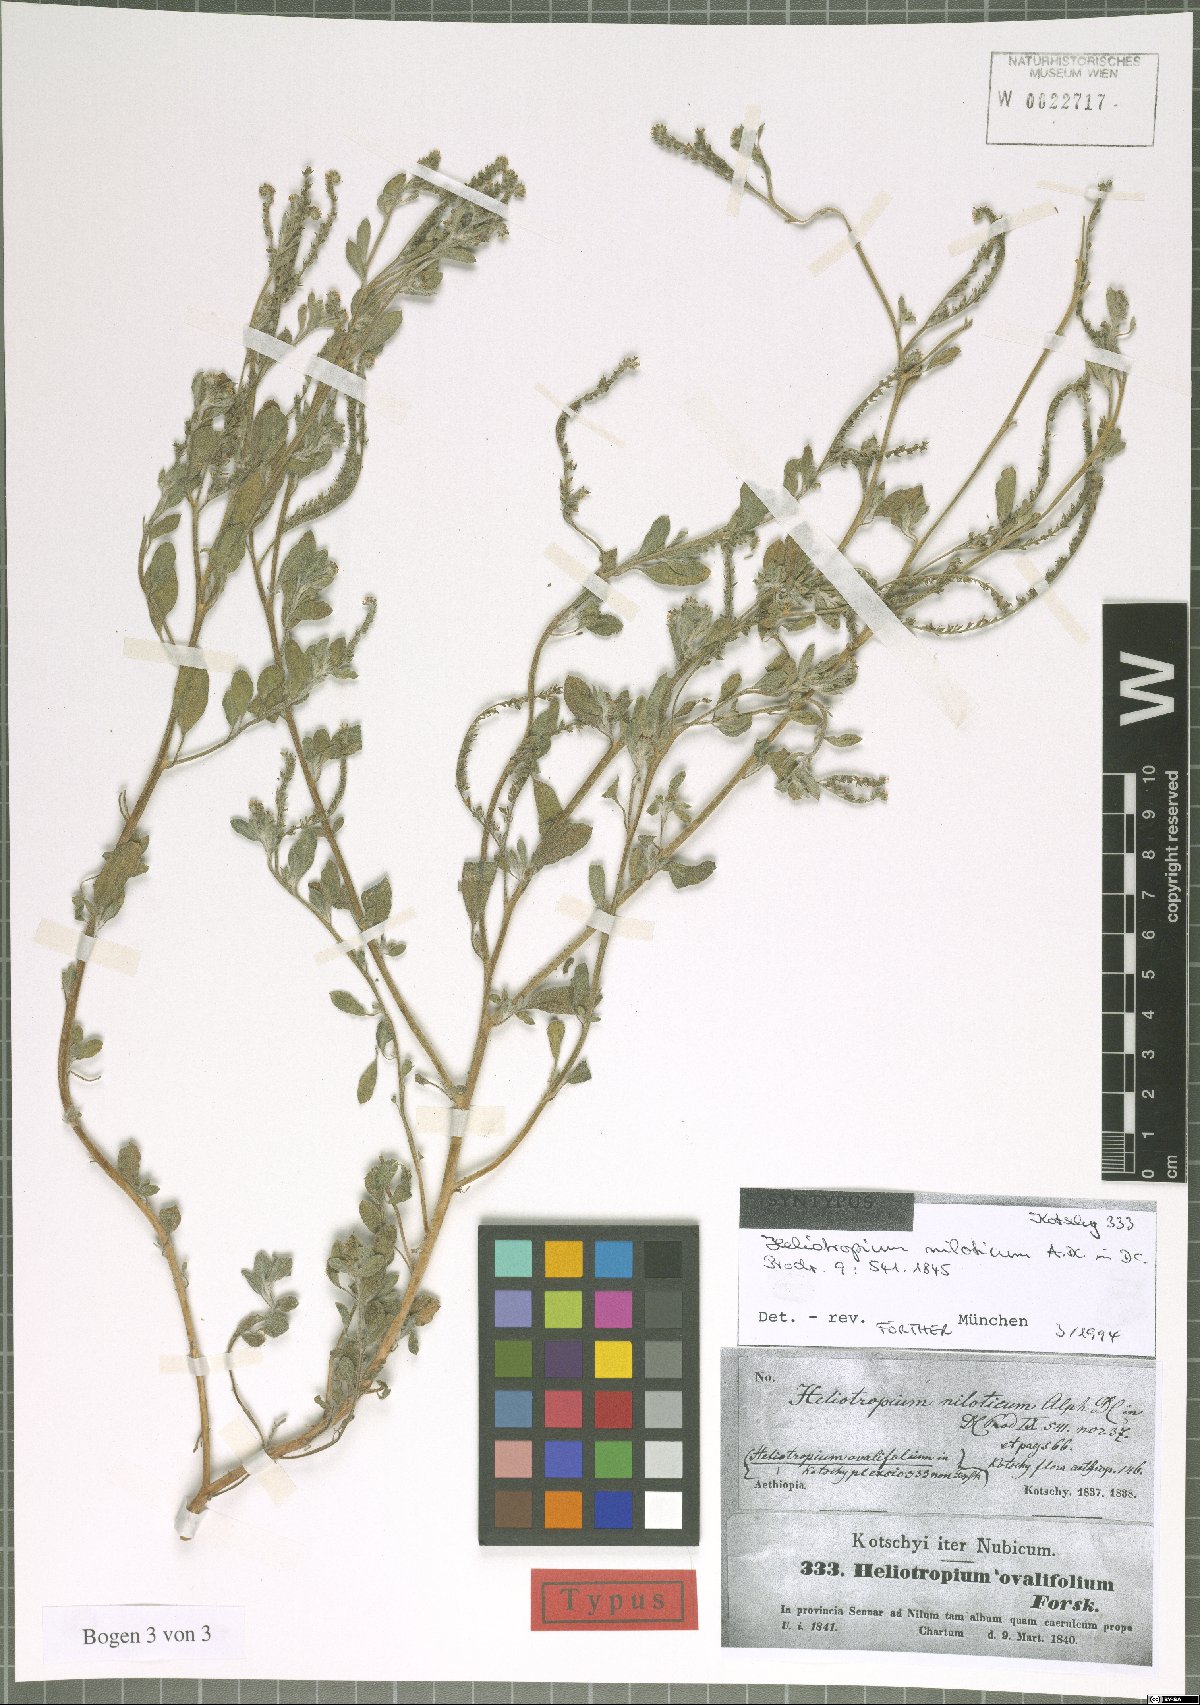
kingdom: Plantae
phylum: Tracheophyta
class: Magnoliopsida
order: Boraginales
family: Heliotropiaceae
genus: Euploca
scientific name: Euploca ovalifolia
